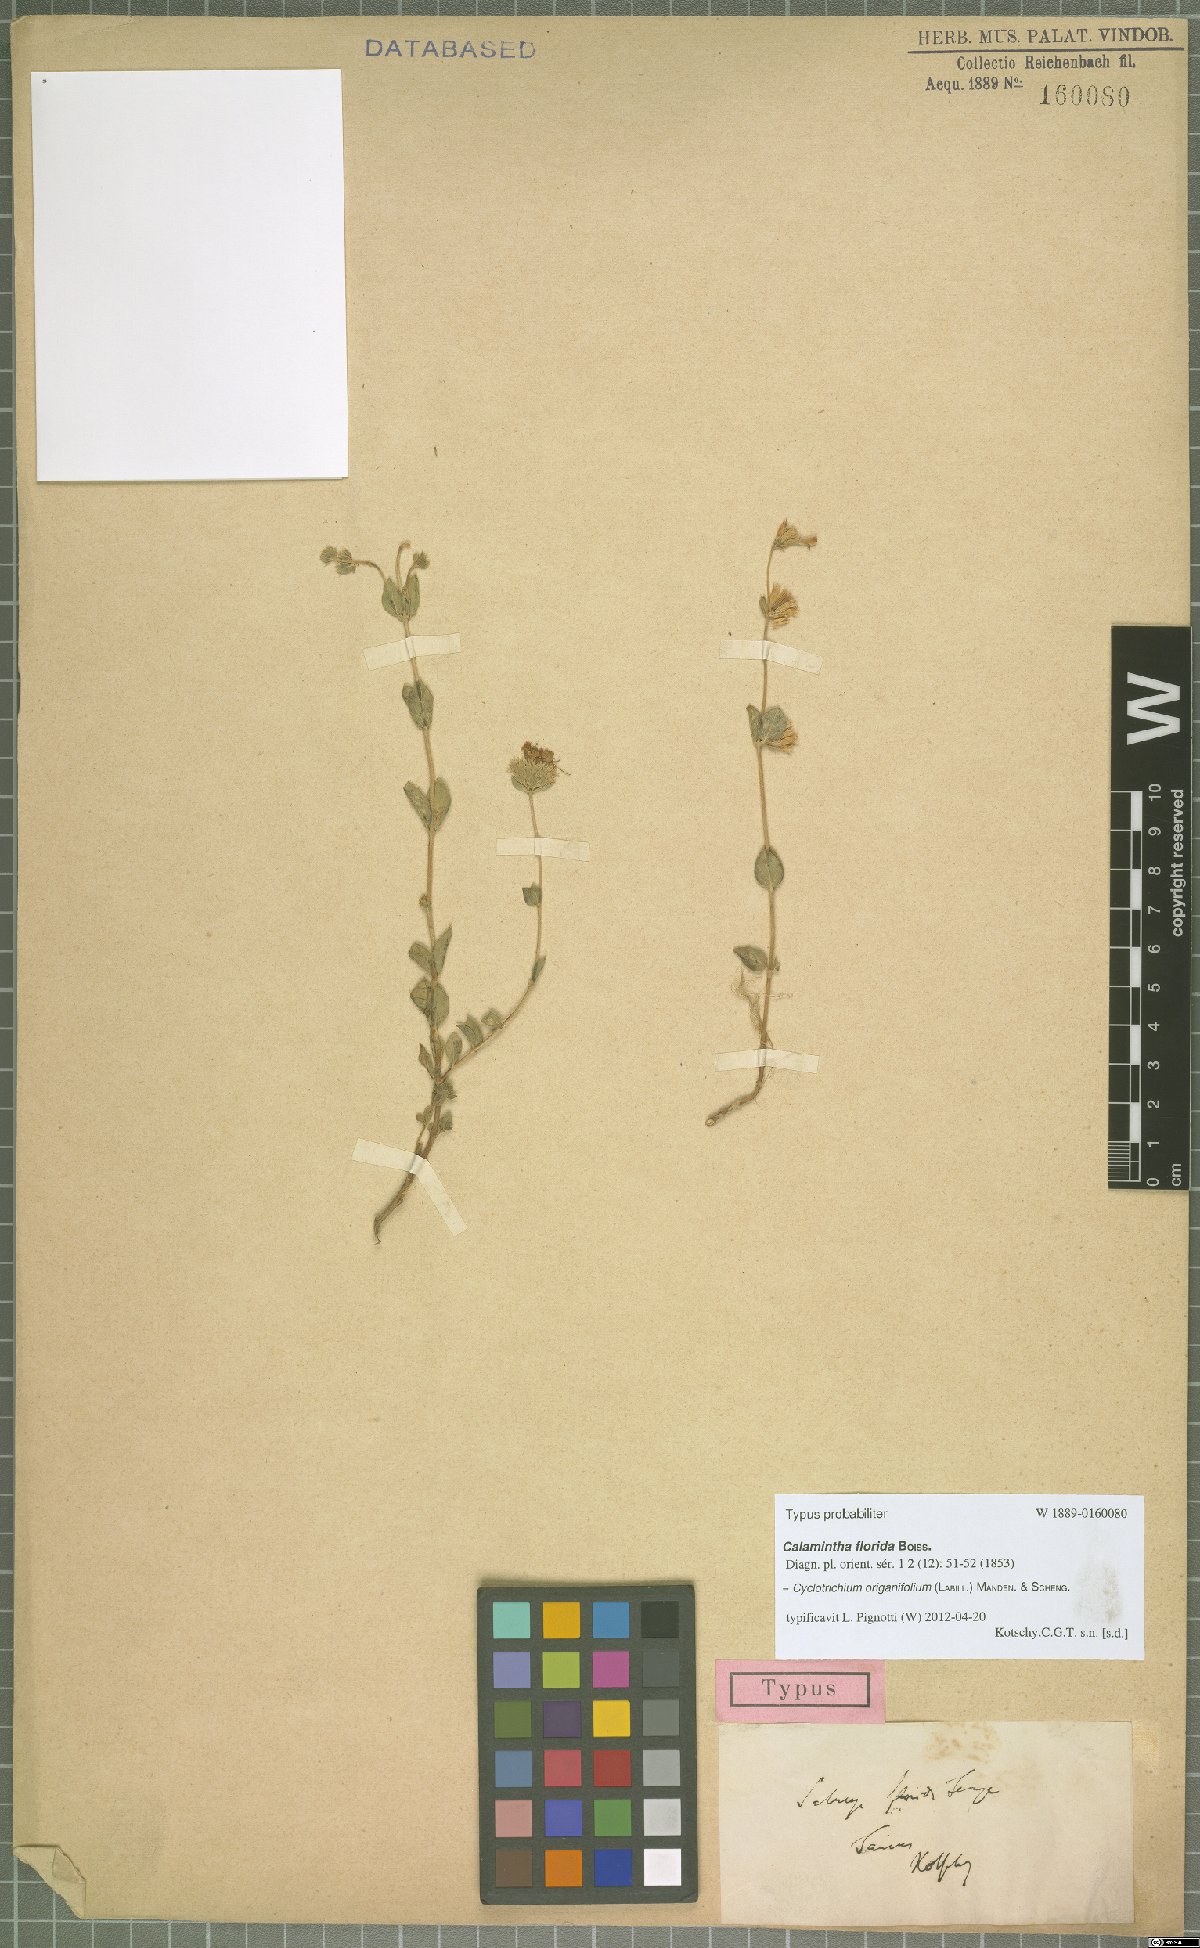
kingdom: Plantae
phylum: Tracheophyta
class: Magnoliopsida
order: Lamiales
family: Lamiaceae
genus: Cyclotrichium
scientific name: Cyclotrichium origanifolium
